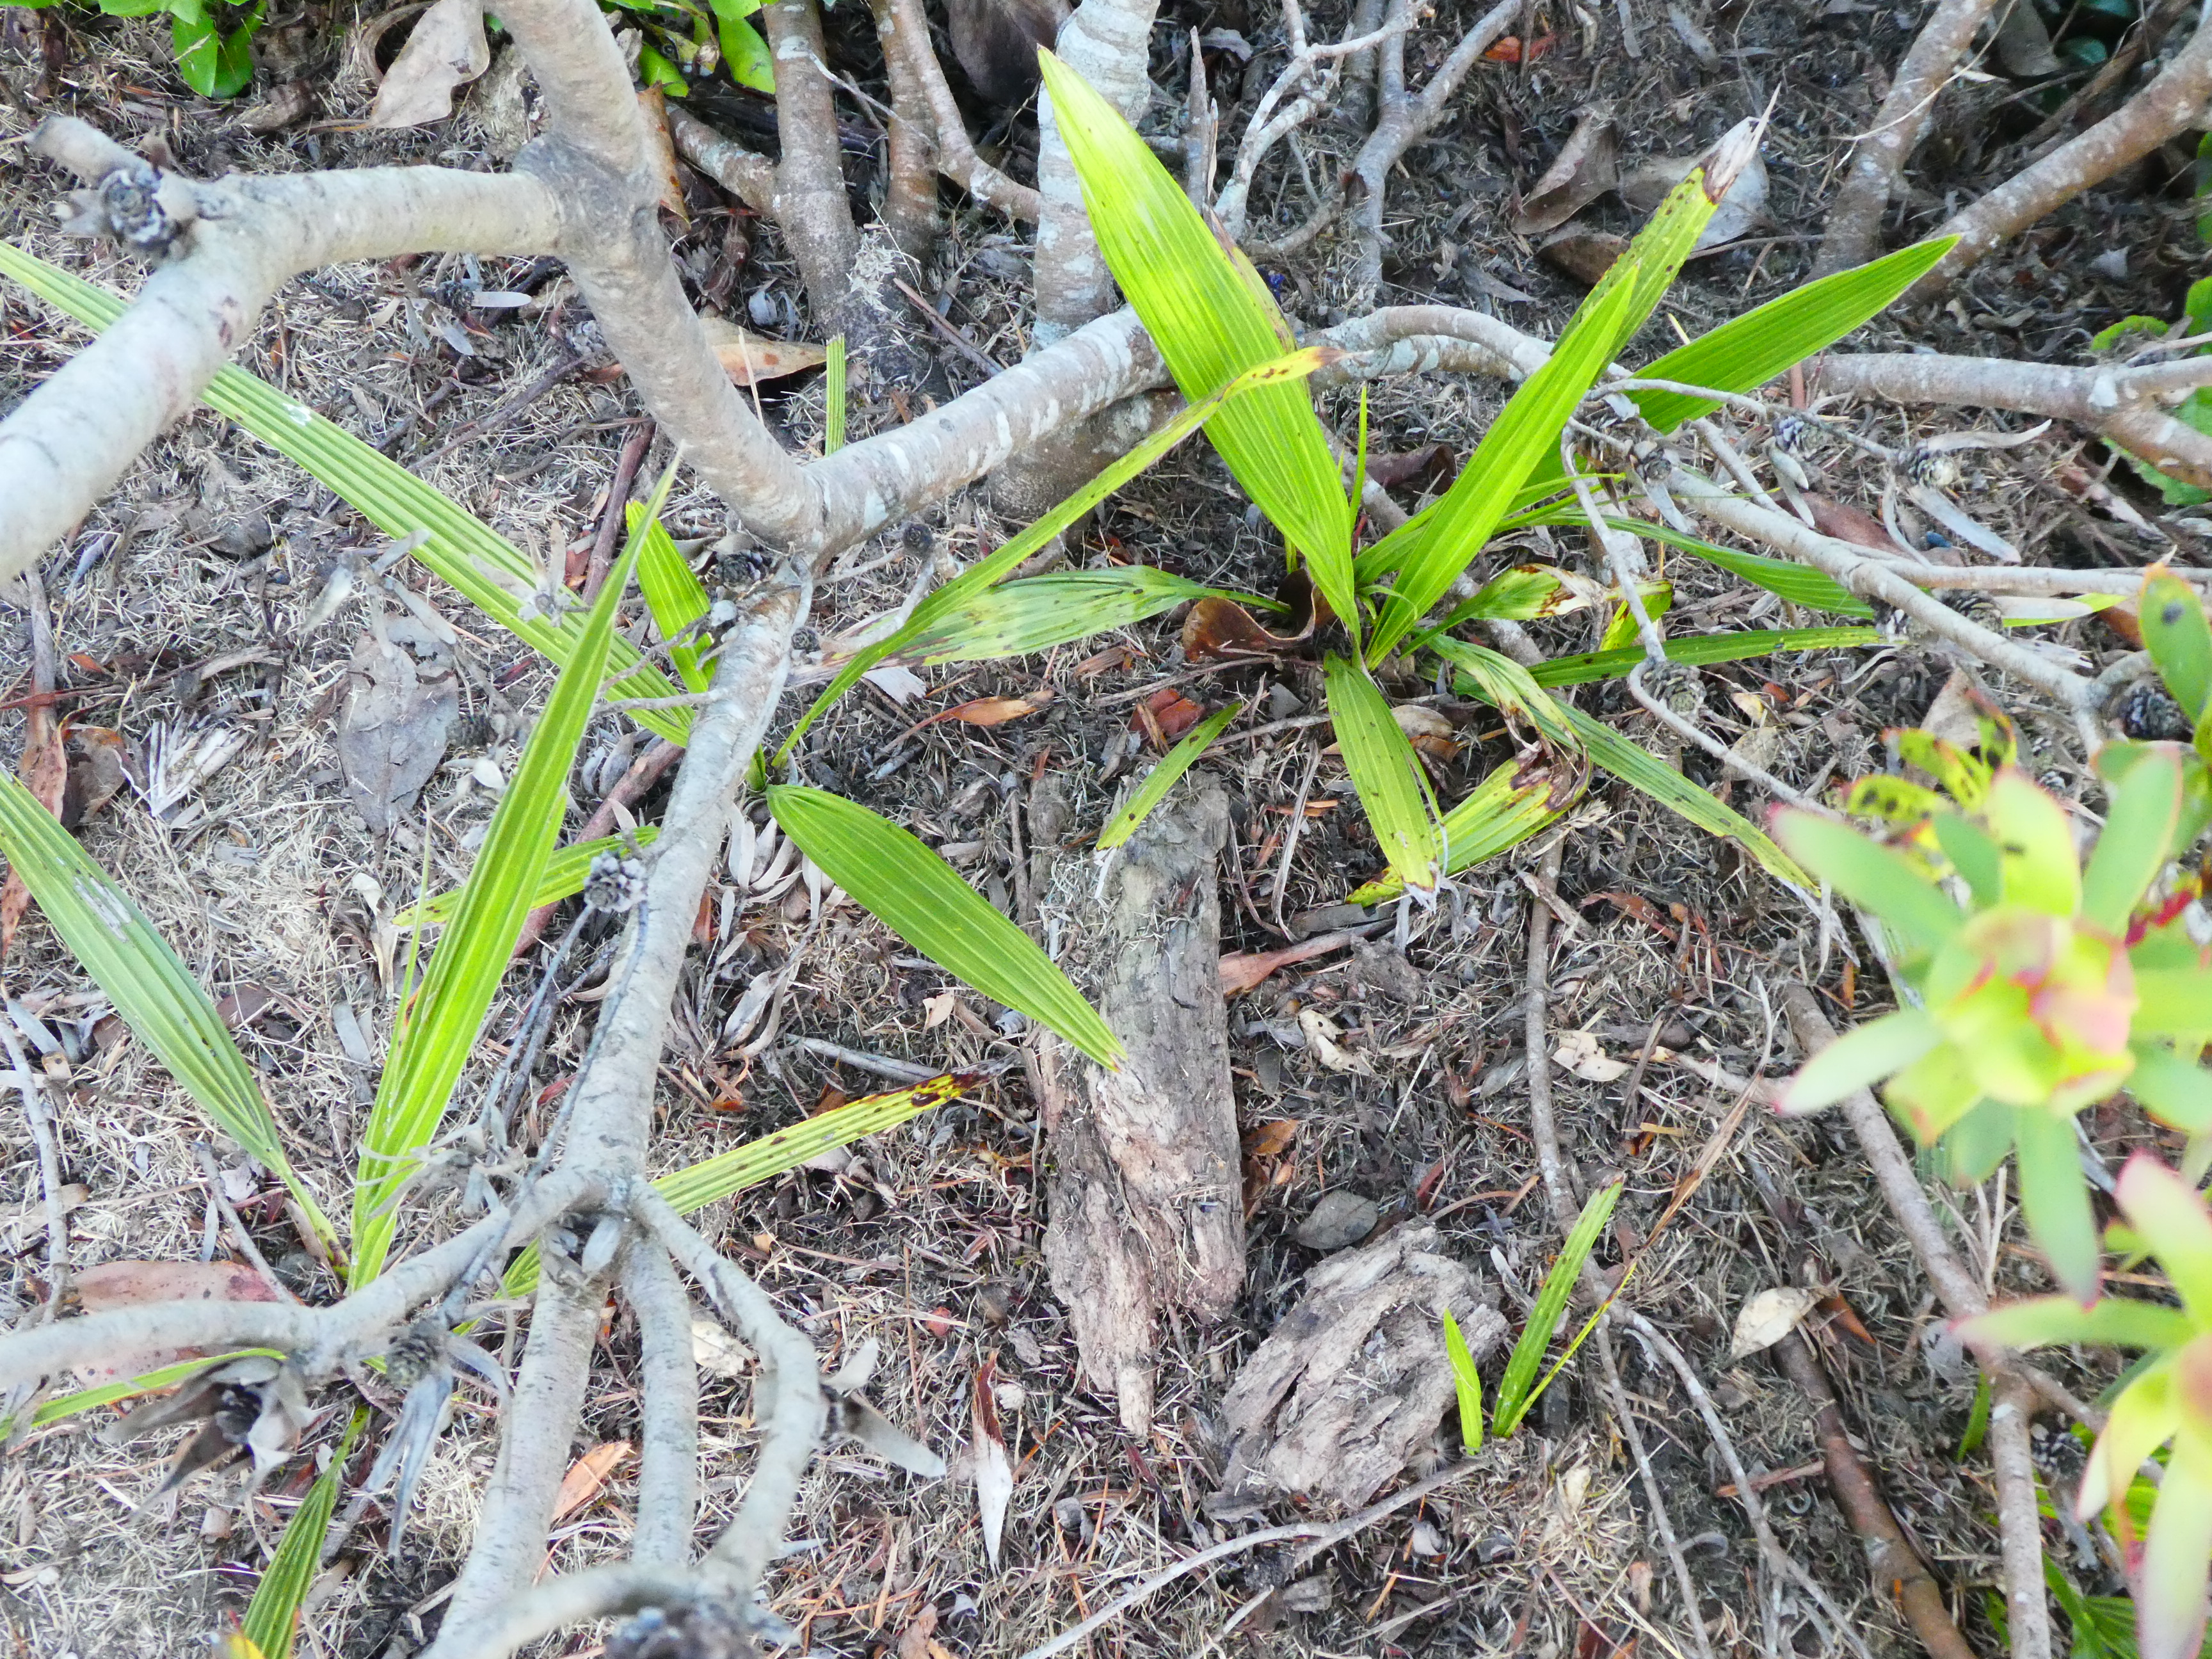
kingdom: Plantae
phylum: Tracheophyta
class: Liliopsida
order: Arecales
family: Arecaceae
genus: Phoenix
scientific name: Phoenix canariensis
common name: Canary island date palm
